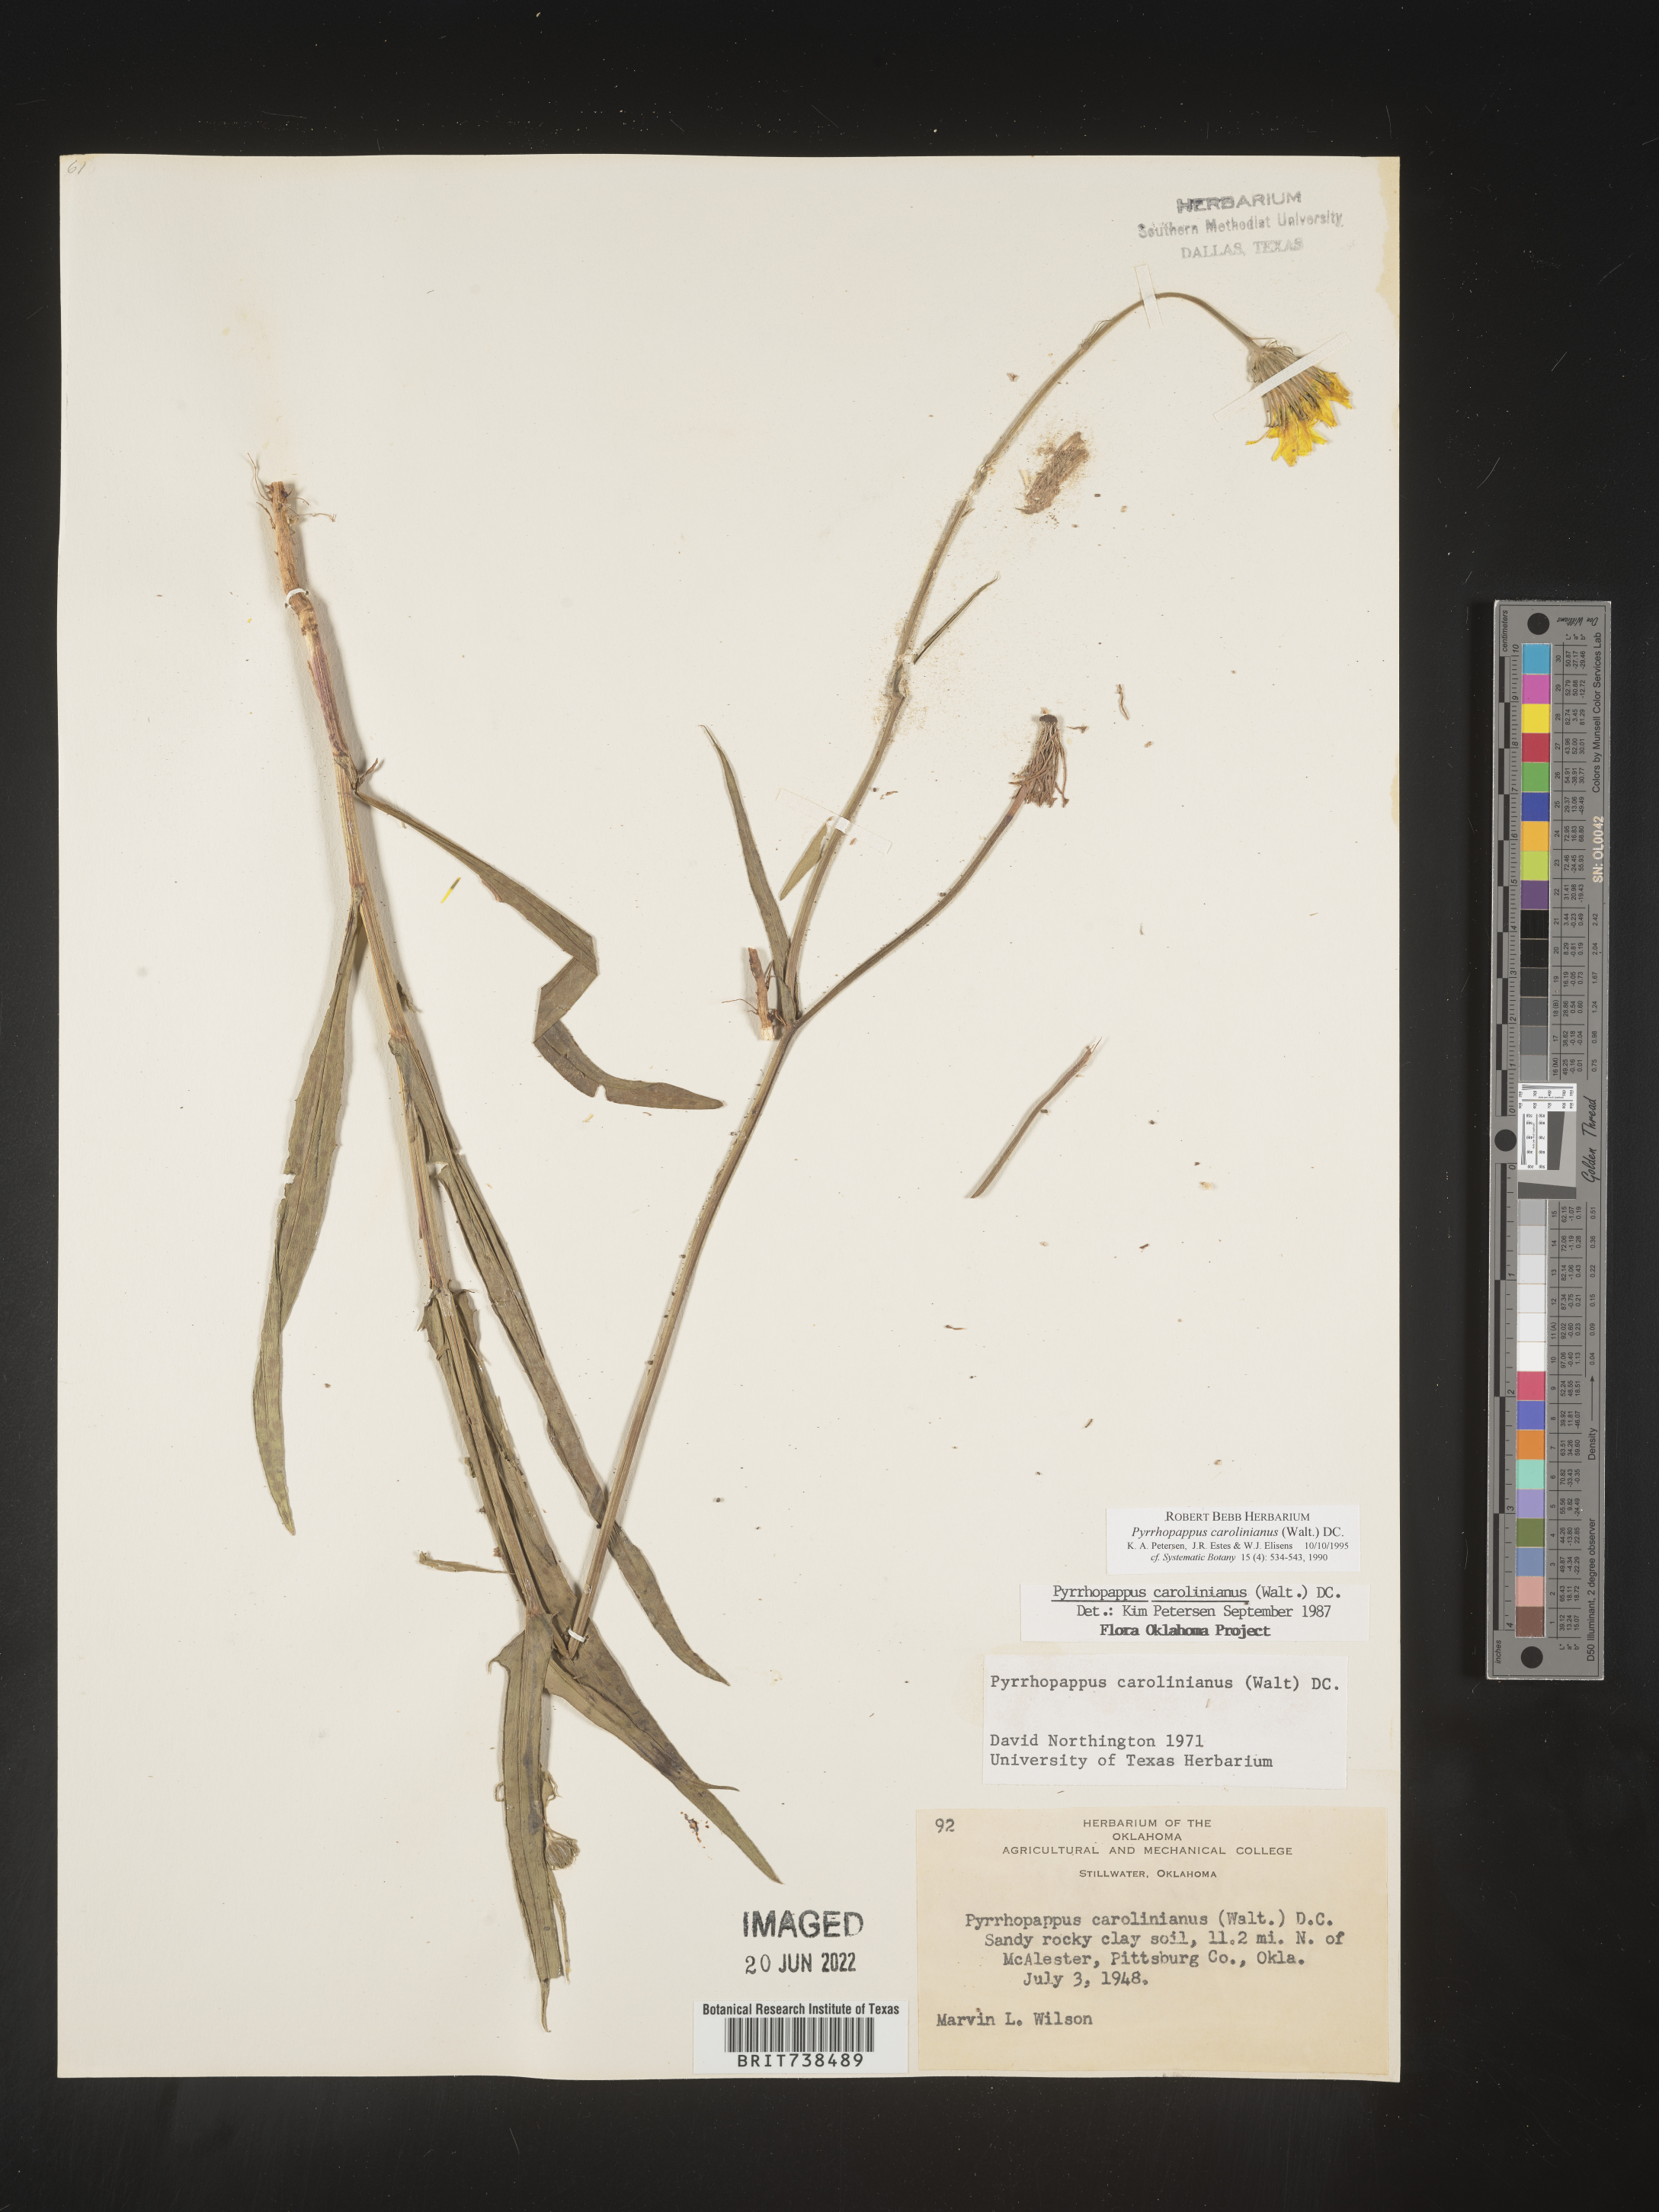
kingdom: Plantae
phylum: Tracheophyta
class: Magnoliopsida
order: Asterales
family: Asteraceae
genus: Pyrrhopappus
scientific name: Pyrrhopappus carolinianus
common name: Carolina desert-chicory
